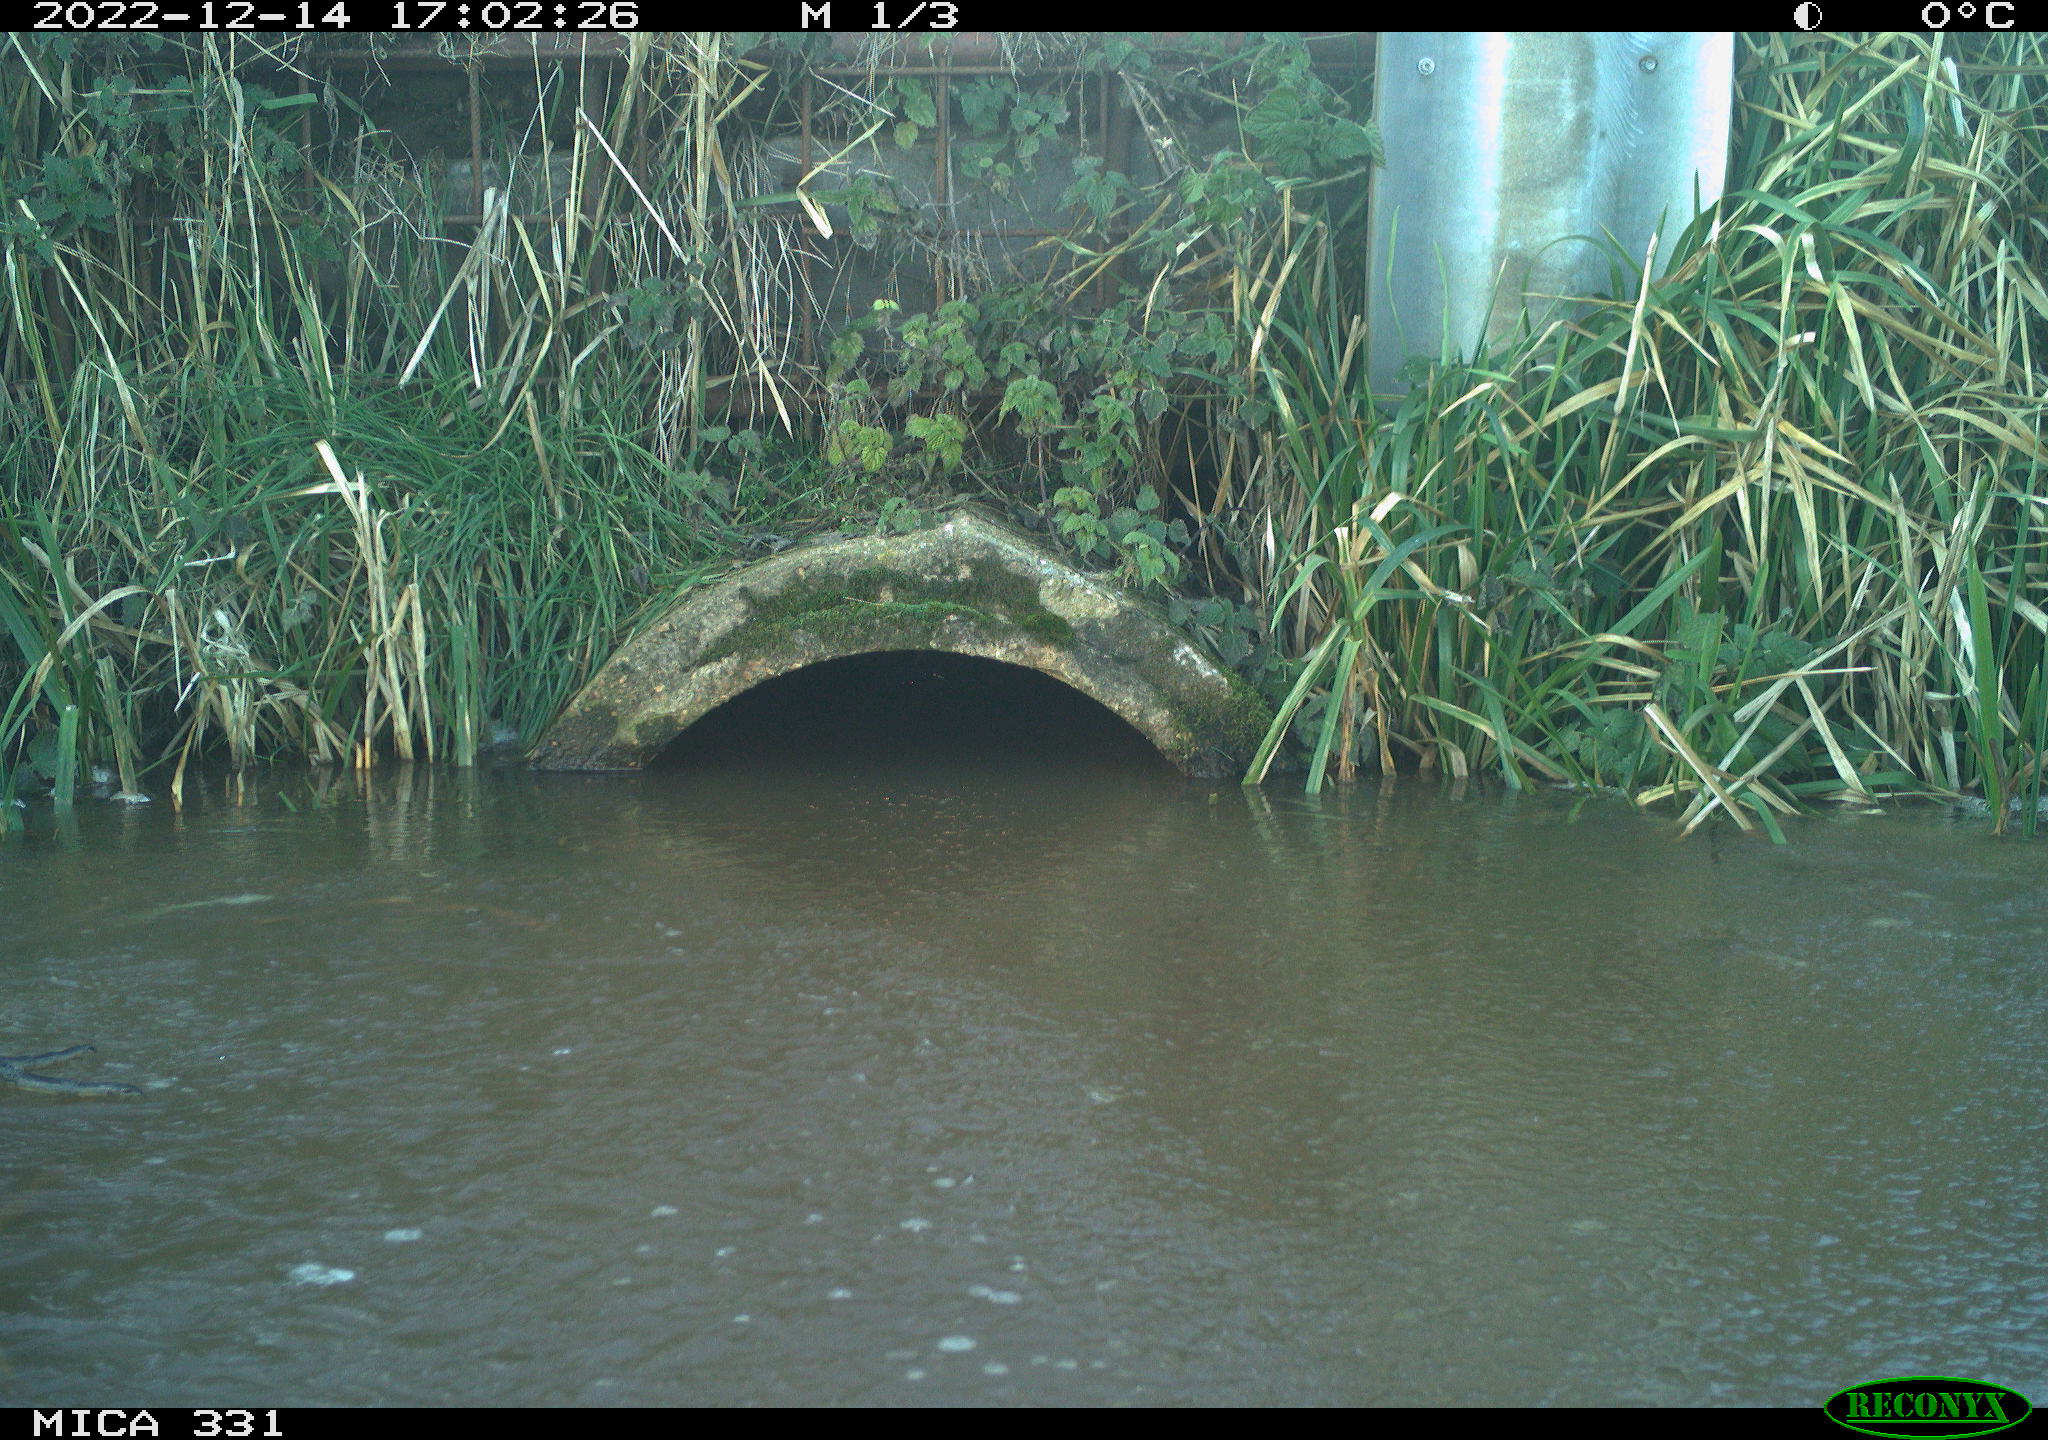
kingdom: Animalia
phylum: Chordata
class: Aves
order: Pelecaniformes
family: Ardeidae
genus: Ardea
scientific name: Ardea cinerea
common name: Grey heron
